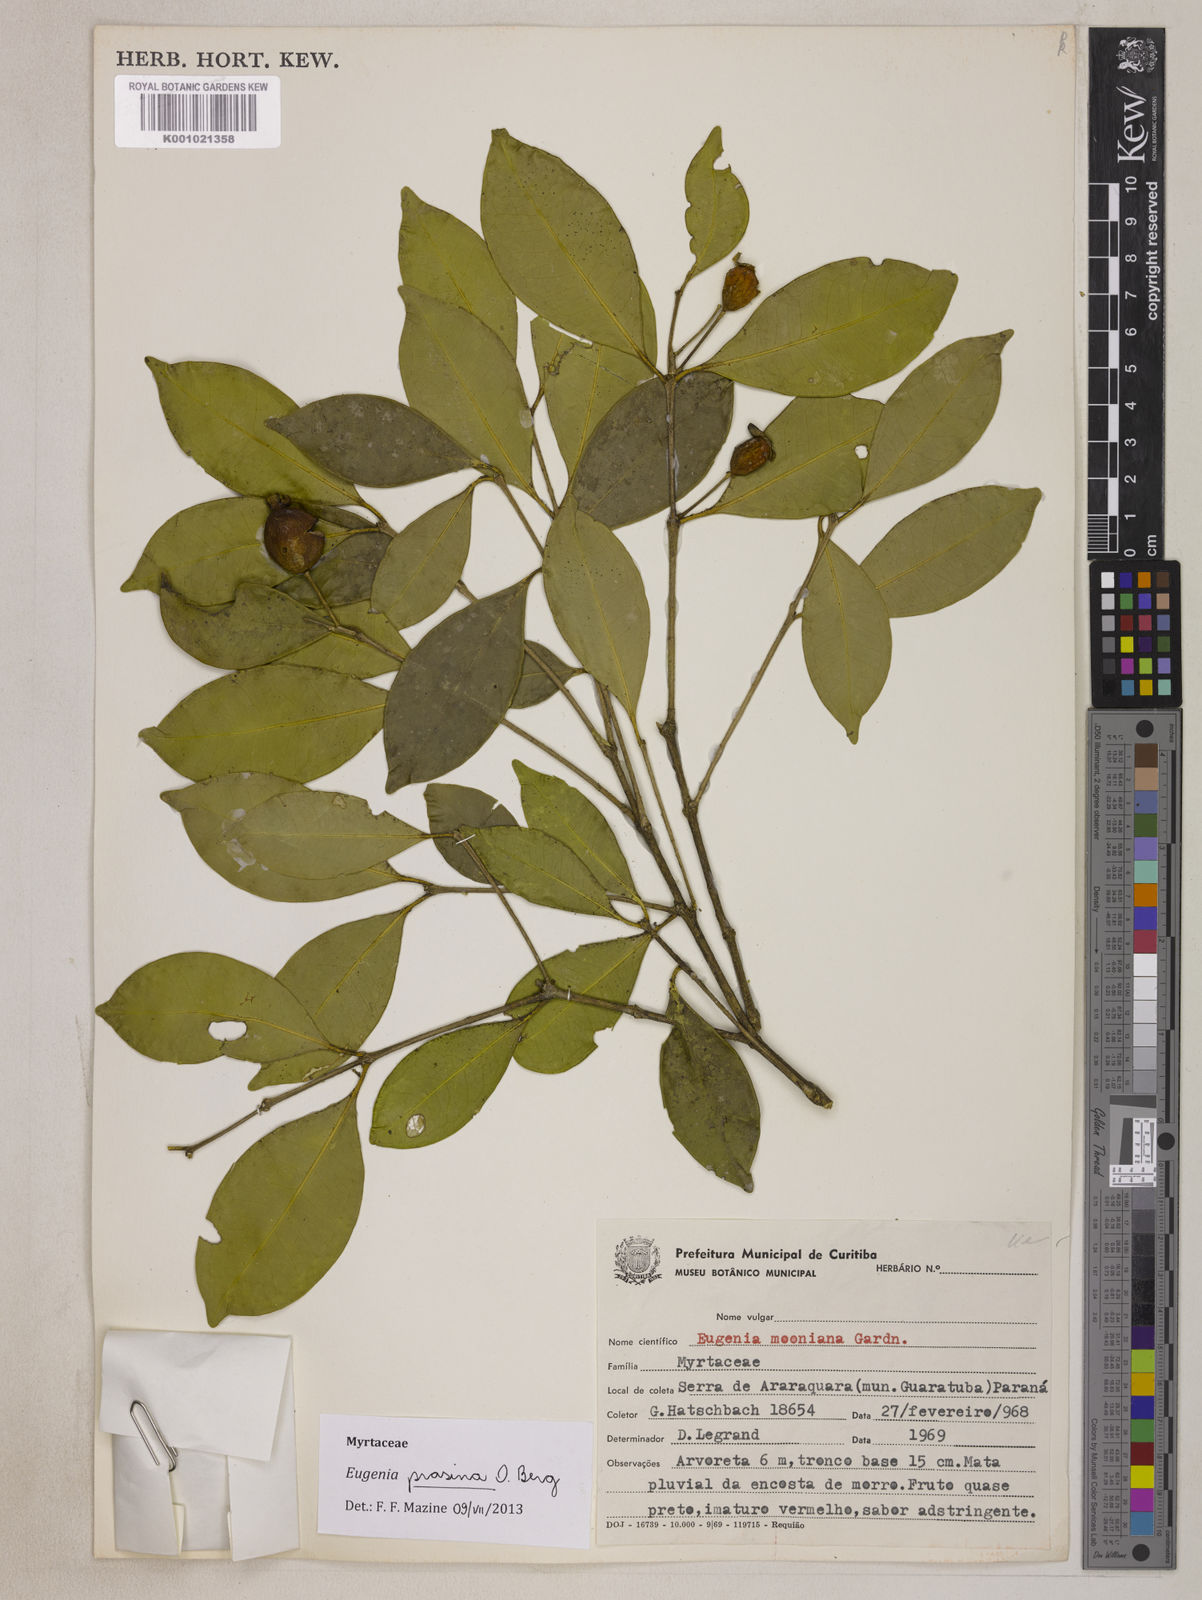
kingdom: Plantae
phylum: Tracheophyta
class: Magnoliopsida
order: Myrtales
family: Myrtaceae
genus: Eugenia
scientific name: Eugenia prasina
